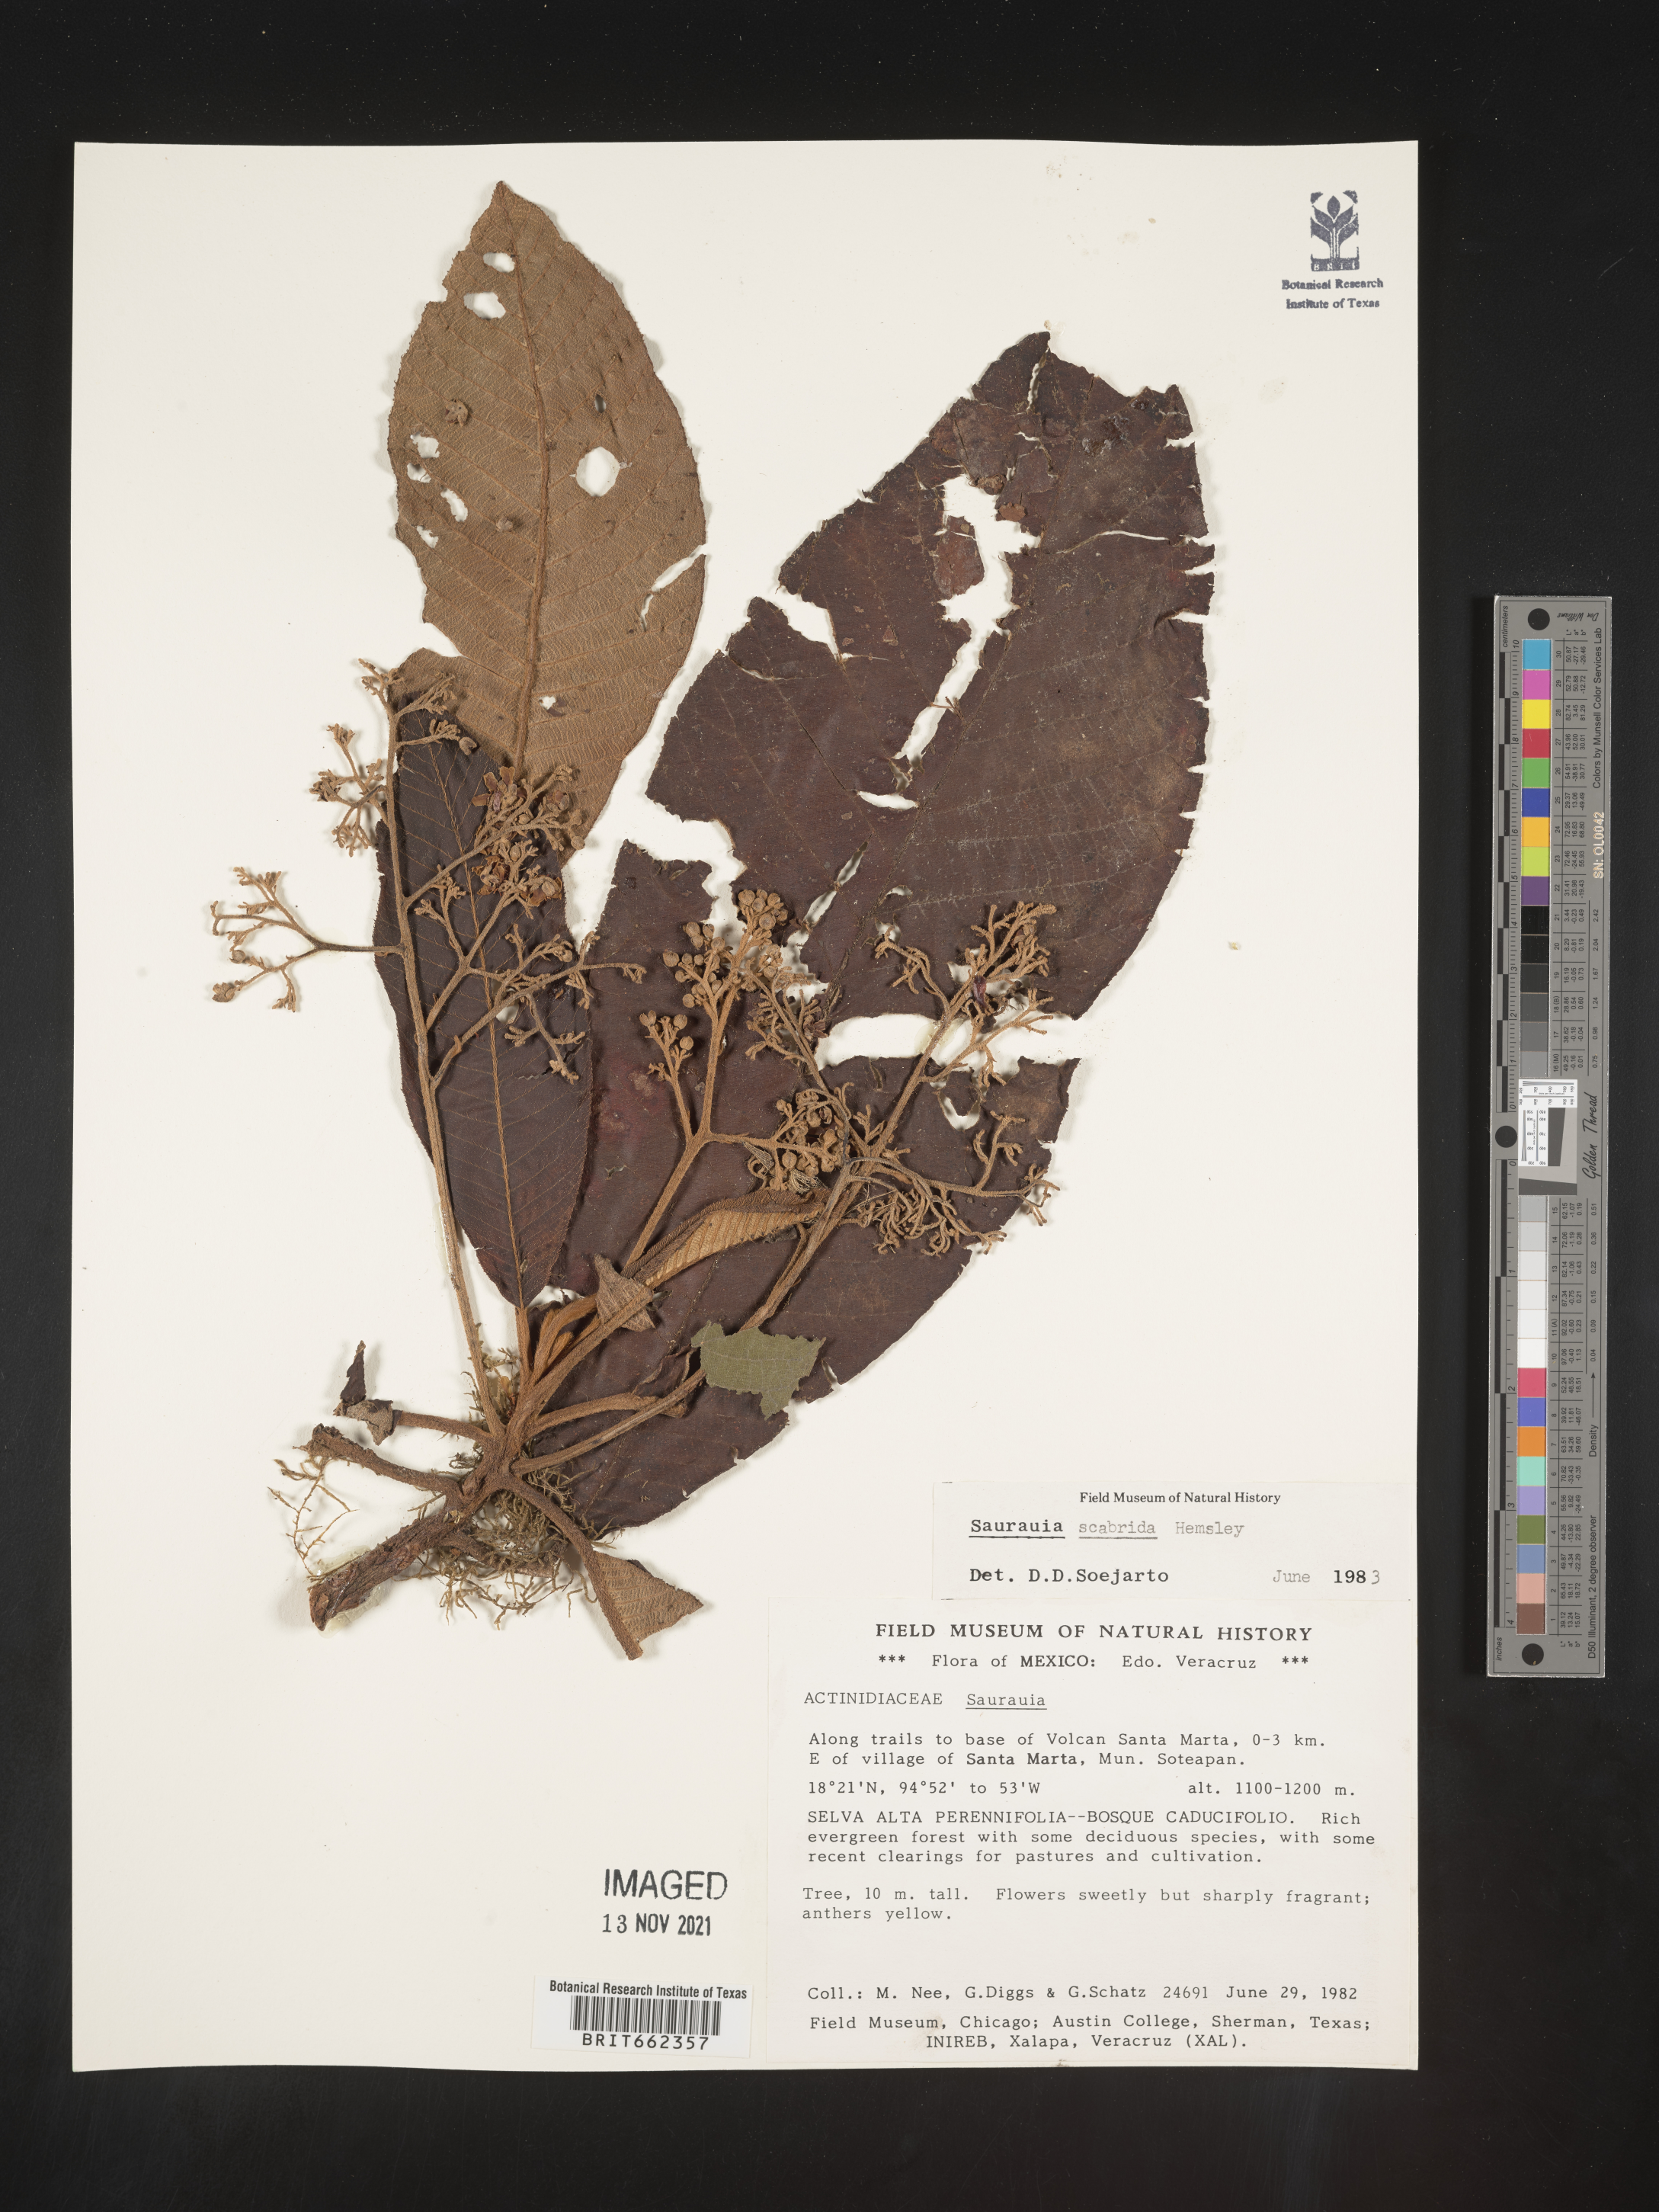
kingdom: Plantae
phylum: Tracheophyta
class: Magnoliopsida
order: Ericales
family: Actinidiaceae
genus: Saurauia
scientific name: Saurauia
